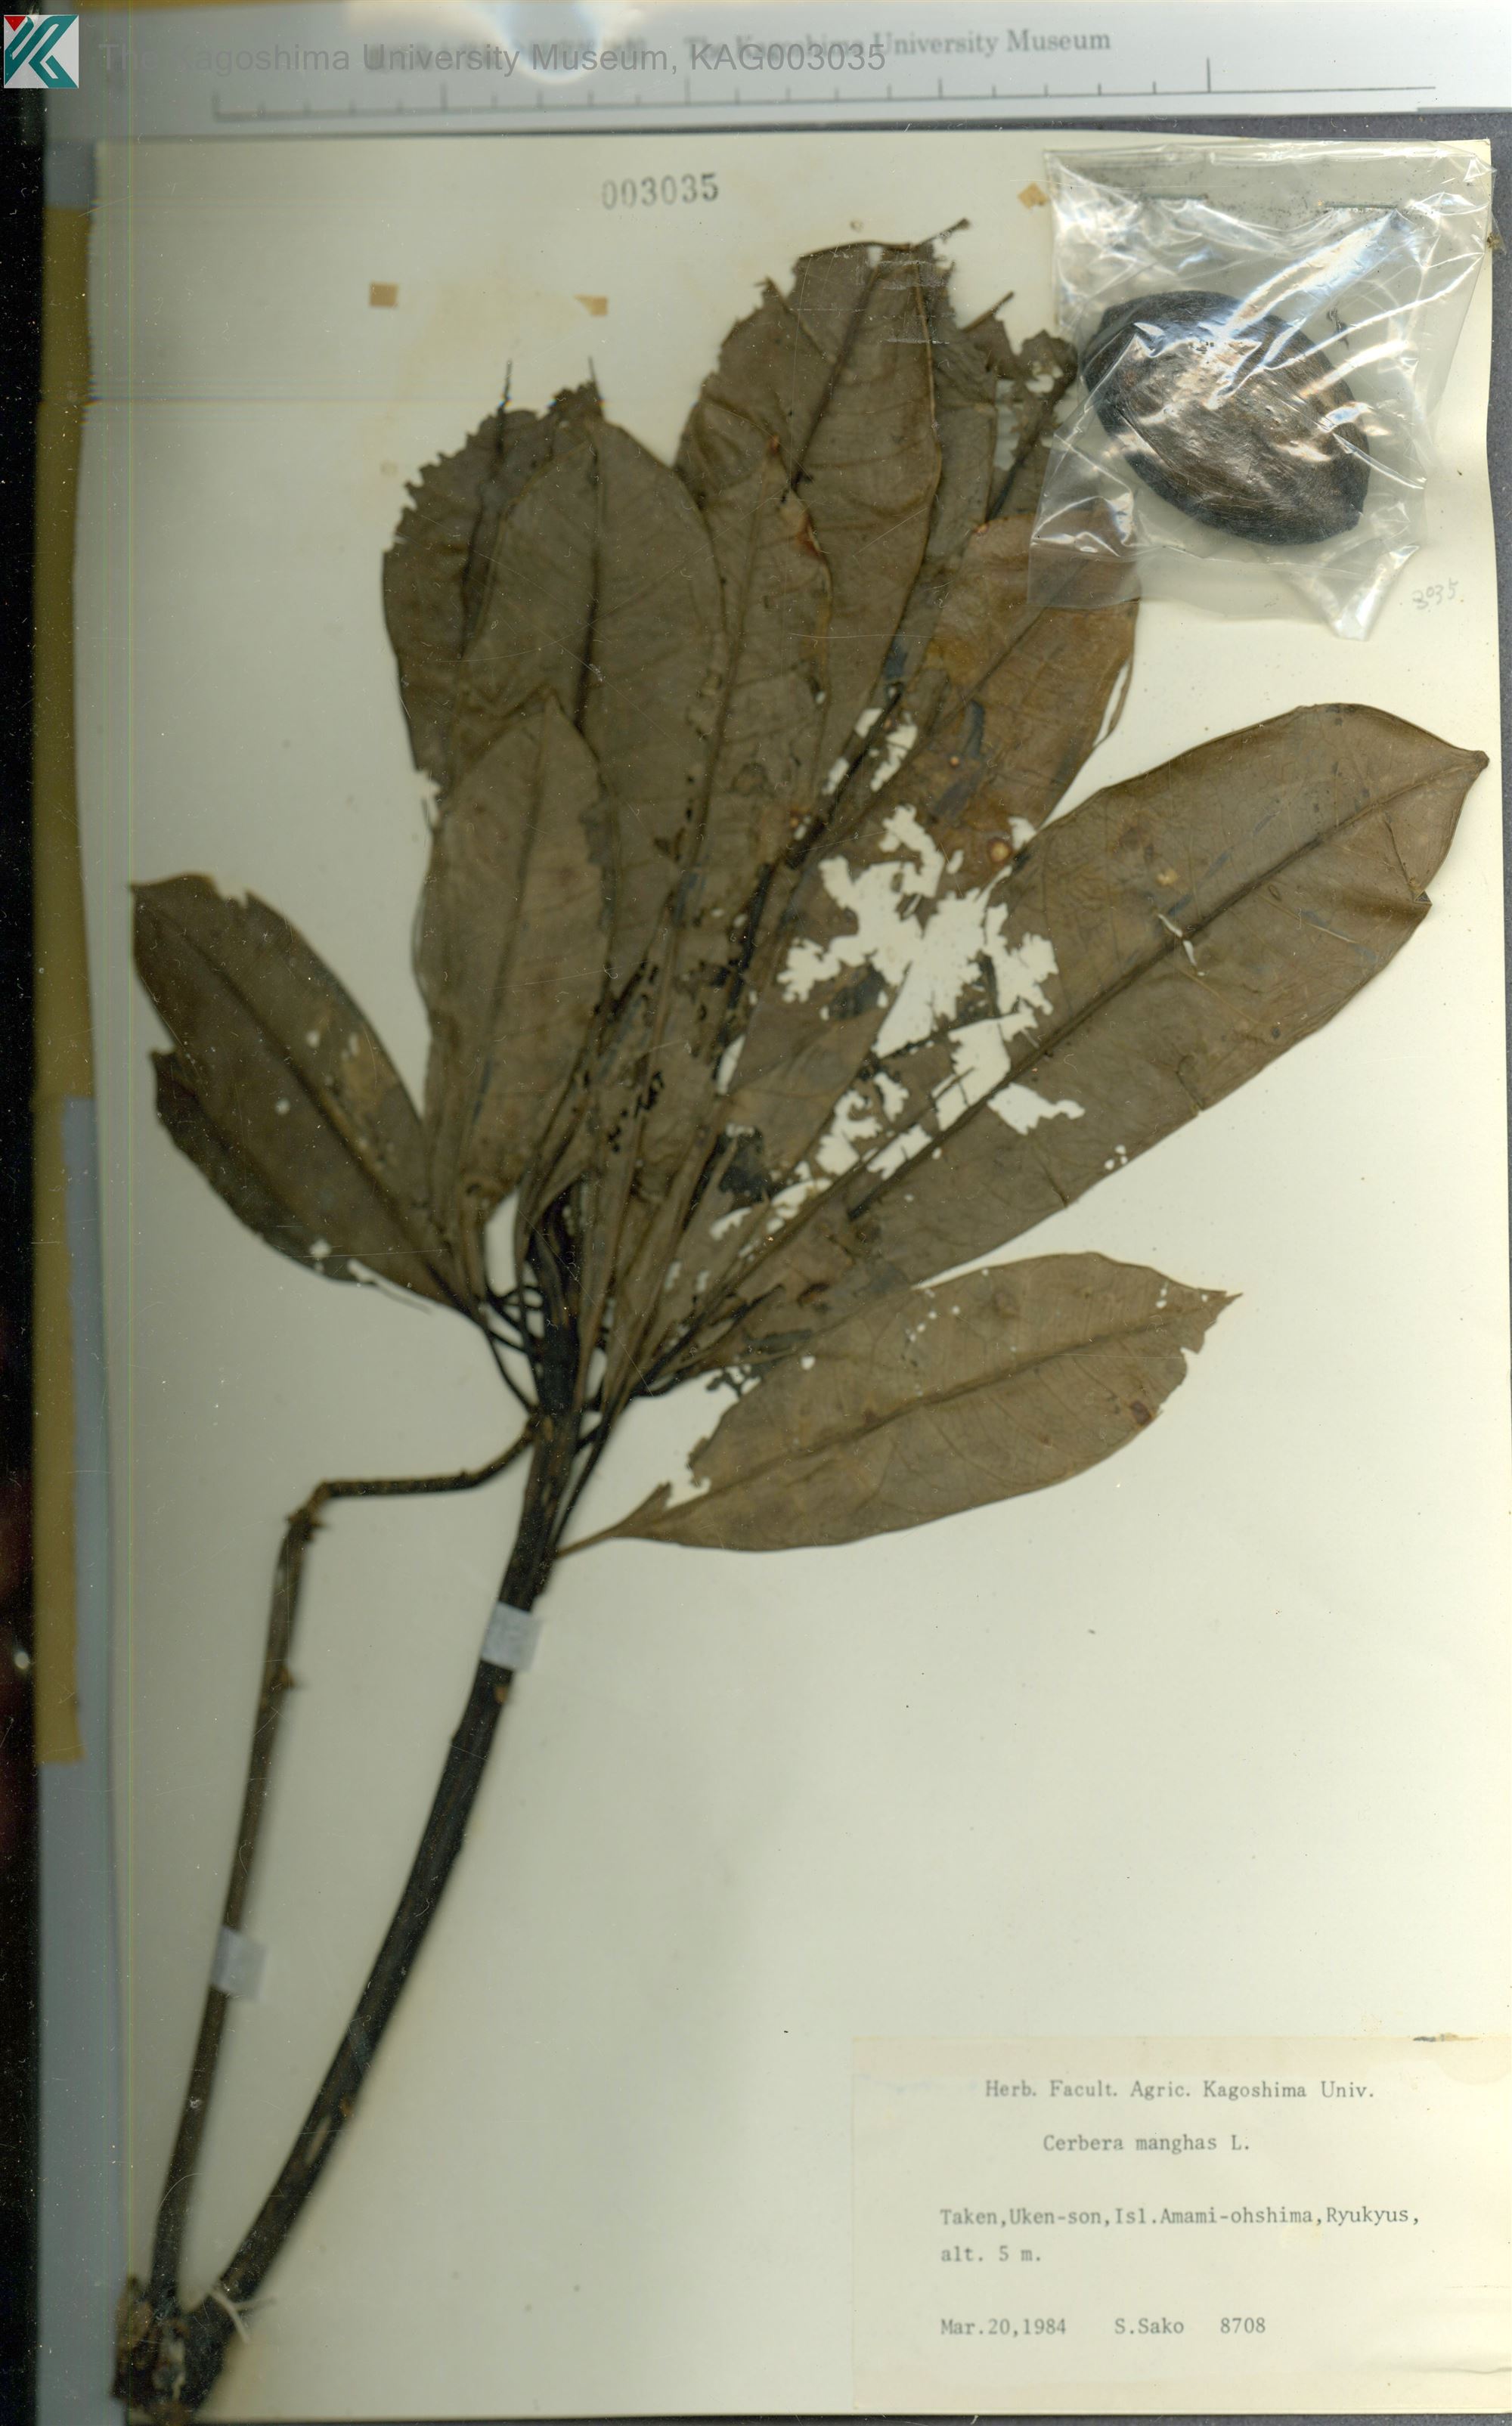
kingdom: Plantae
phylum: Tracheophyta
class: Magnoliopsida
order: Gentianales
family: Apocynaceae
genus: Cerbera
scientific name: Cerbera manghas
